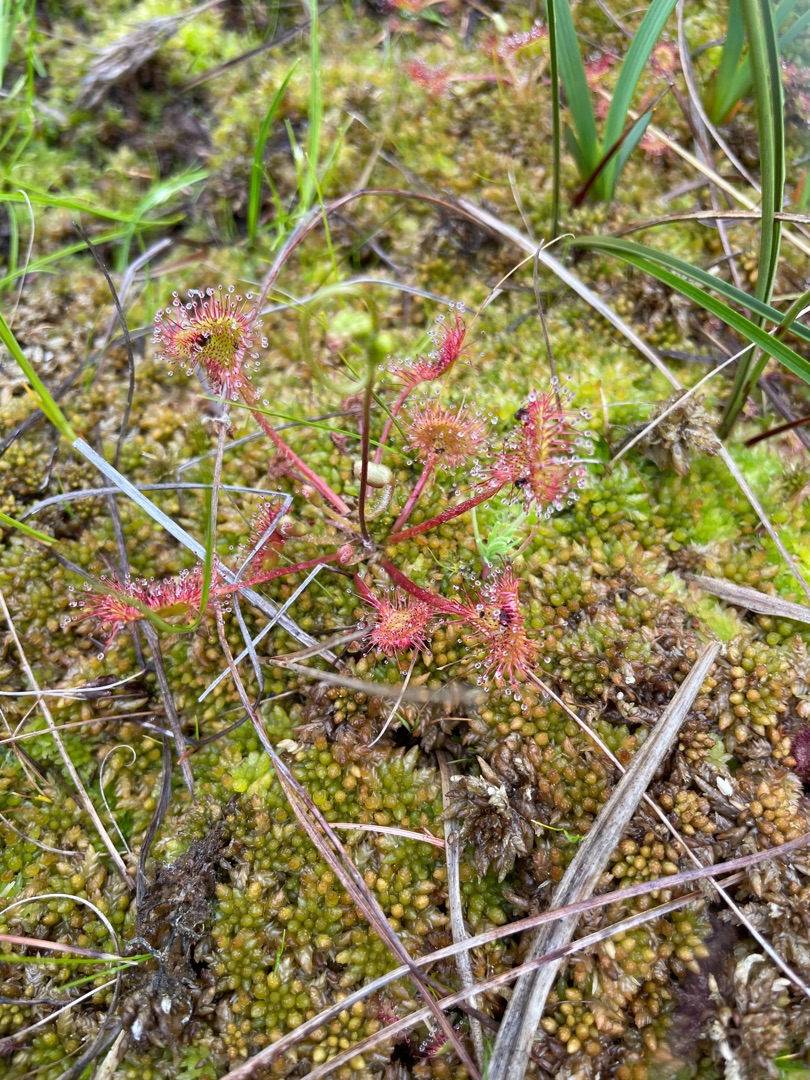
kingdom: Plantae
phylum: Tracheophyta
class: Magnoliopsida
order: Caryophyllales
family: Droseraceae
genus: Drosera
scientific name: Drosera rotundifolia
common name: Rundbladet soldug
